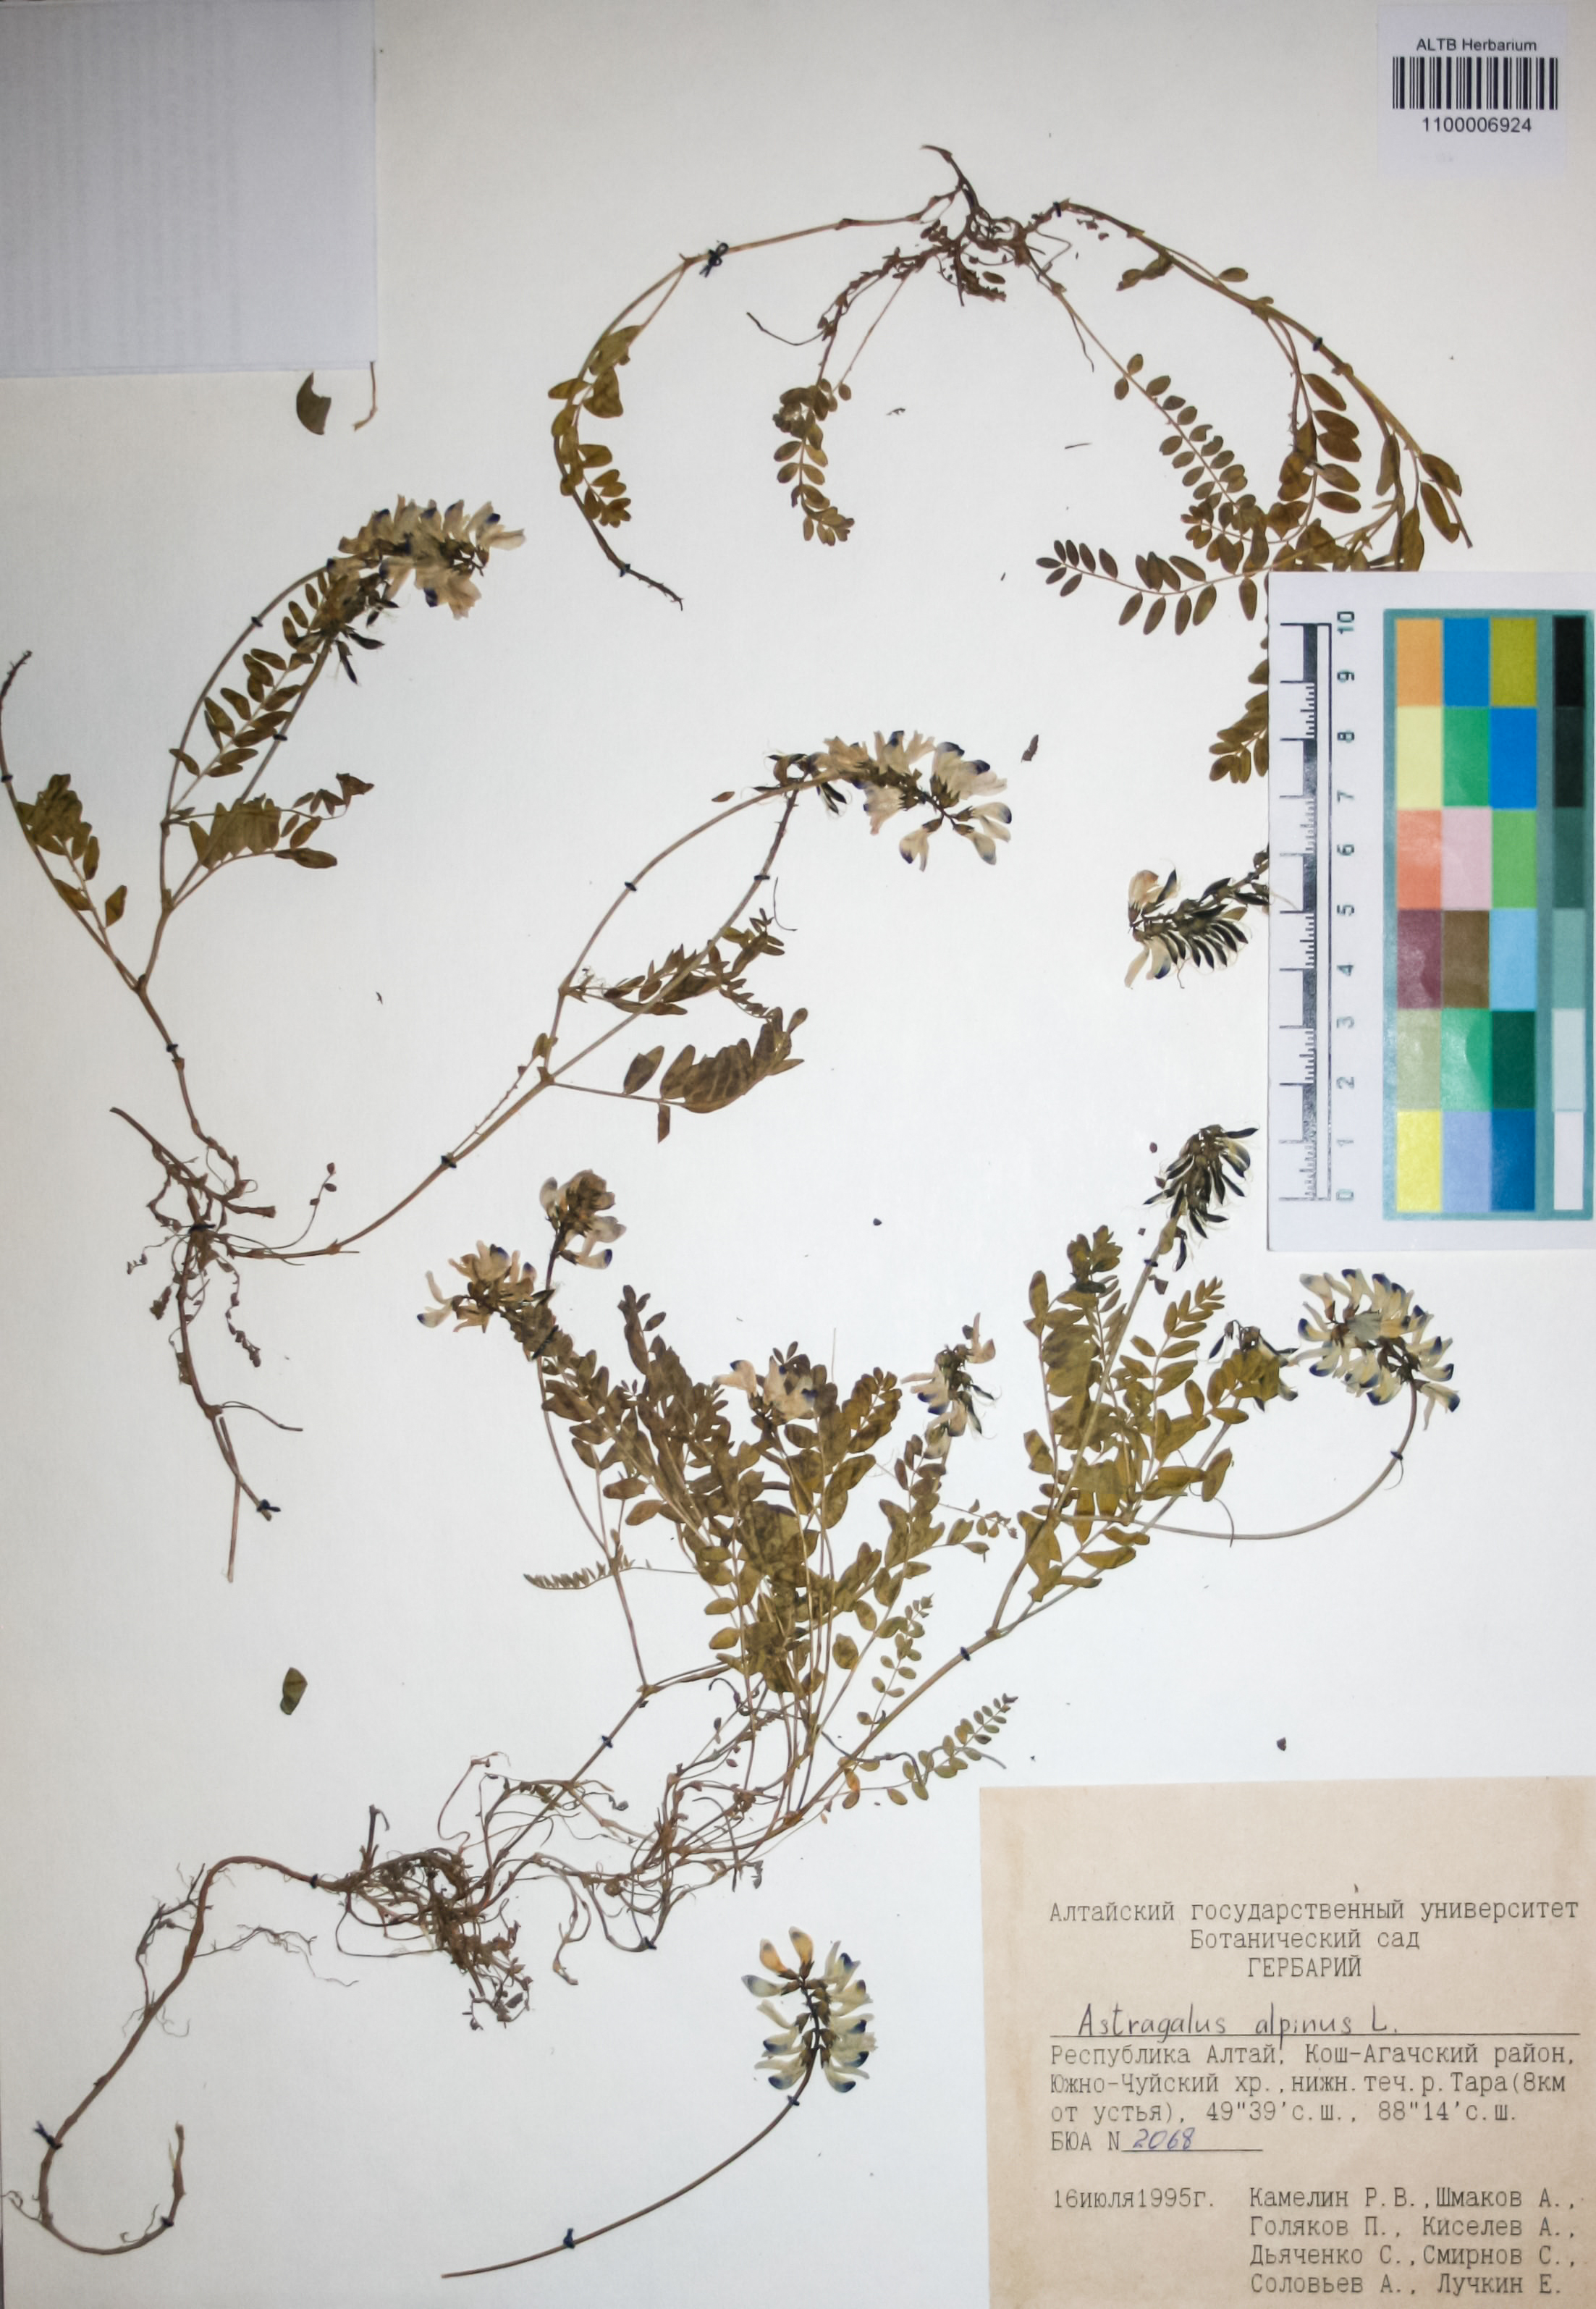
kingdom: Plantae
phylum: Tracheophyta
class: Magnoliopsida
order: Fabales
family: Fabaceae
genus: Astragalus
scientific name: Astragalus alpinus
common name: Alpine milk-vetch
